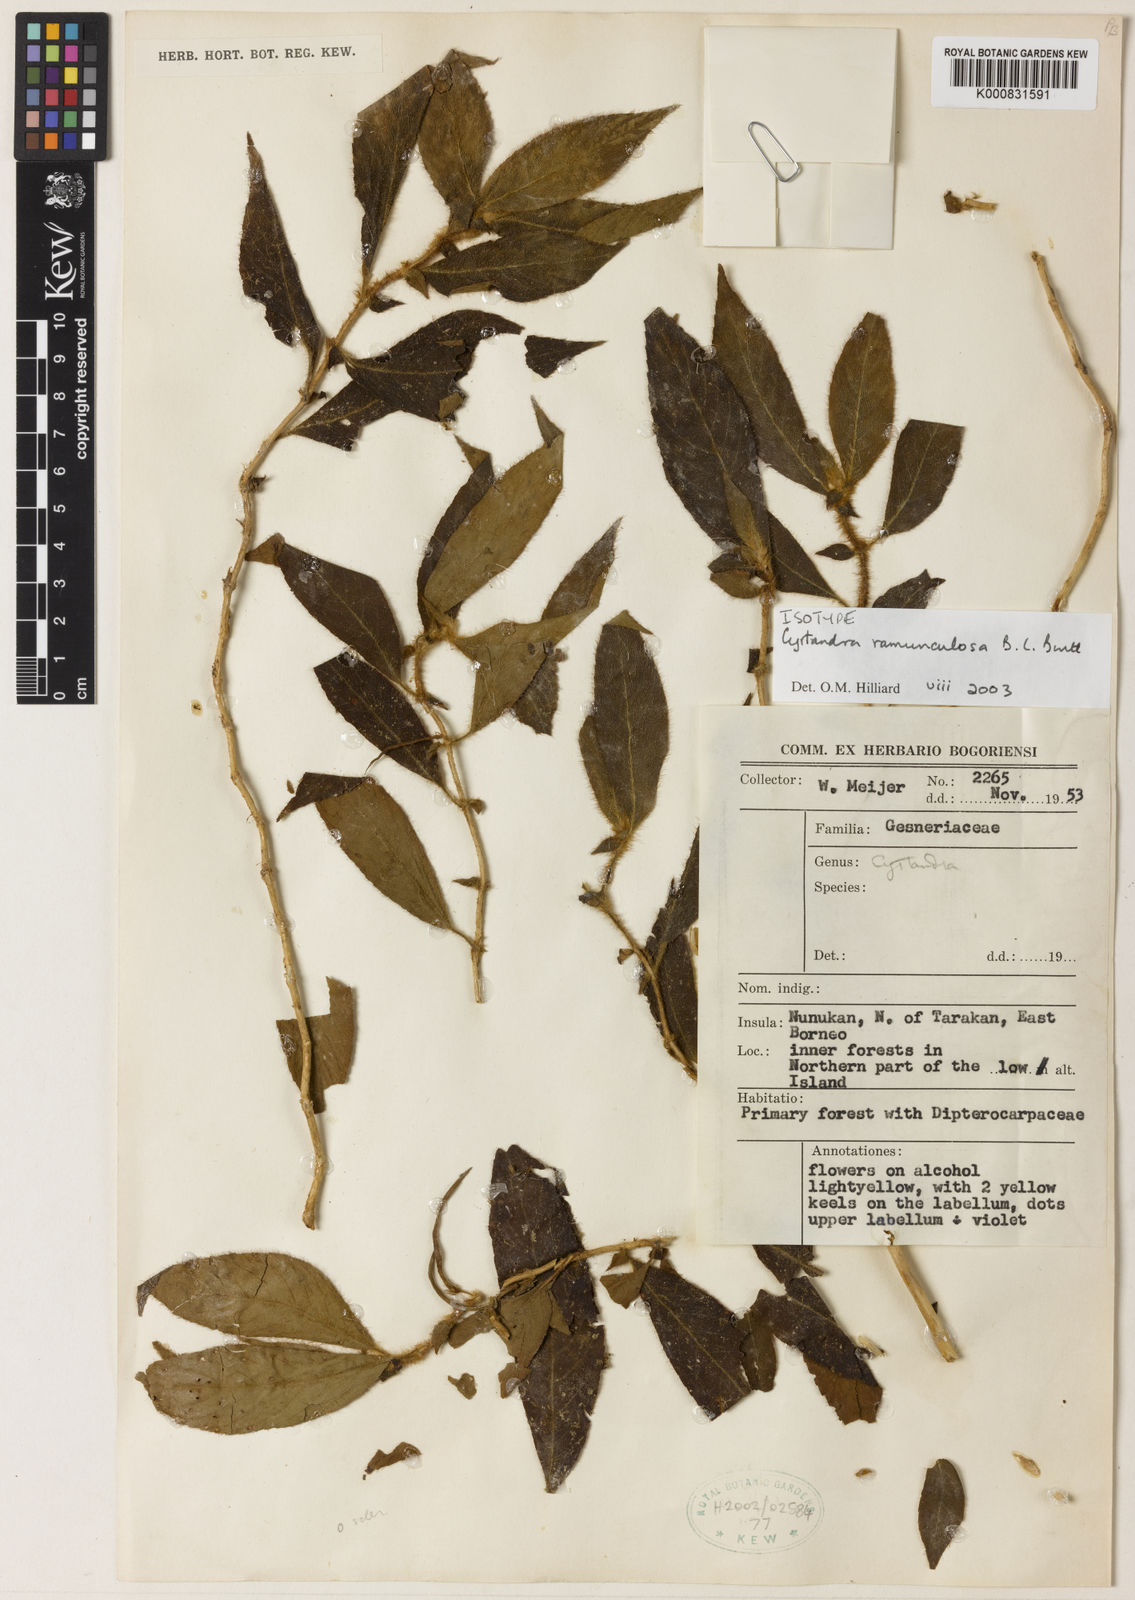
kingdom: Plantae
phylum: Tracheophyta
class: Magnoliopsida
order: Lamiales
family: Gesneriaceae
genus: Cyrtandra
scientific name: Cyrtandra ramunculosa
